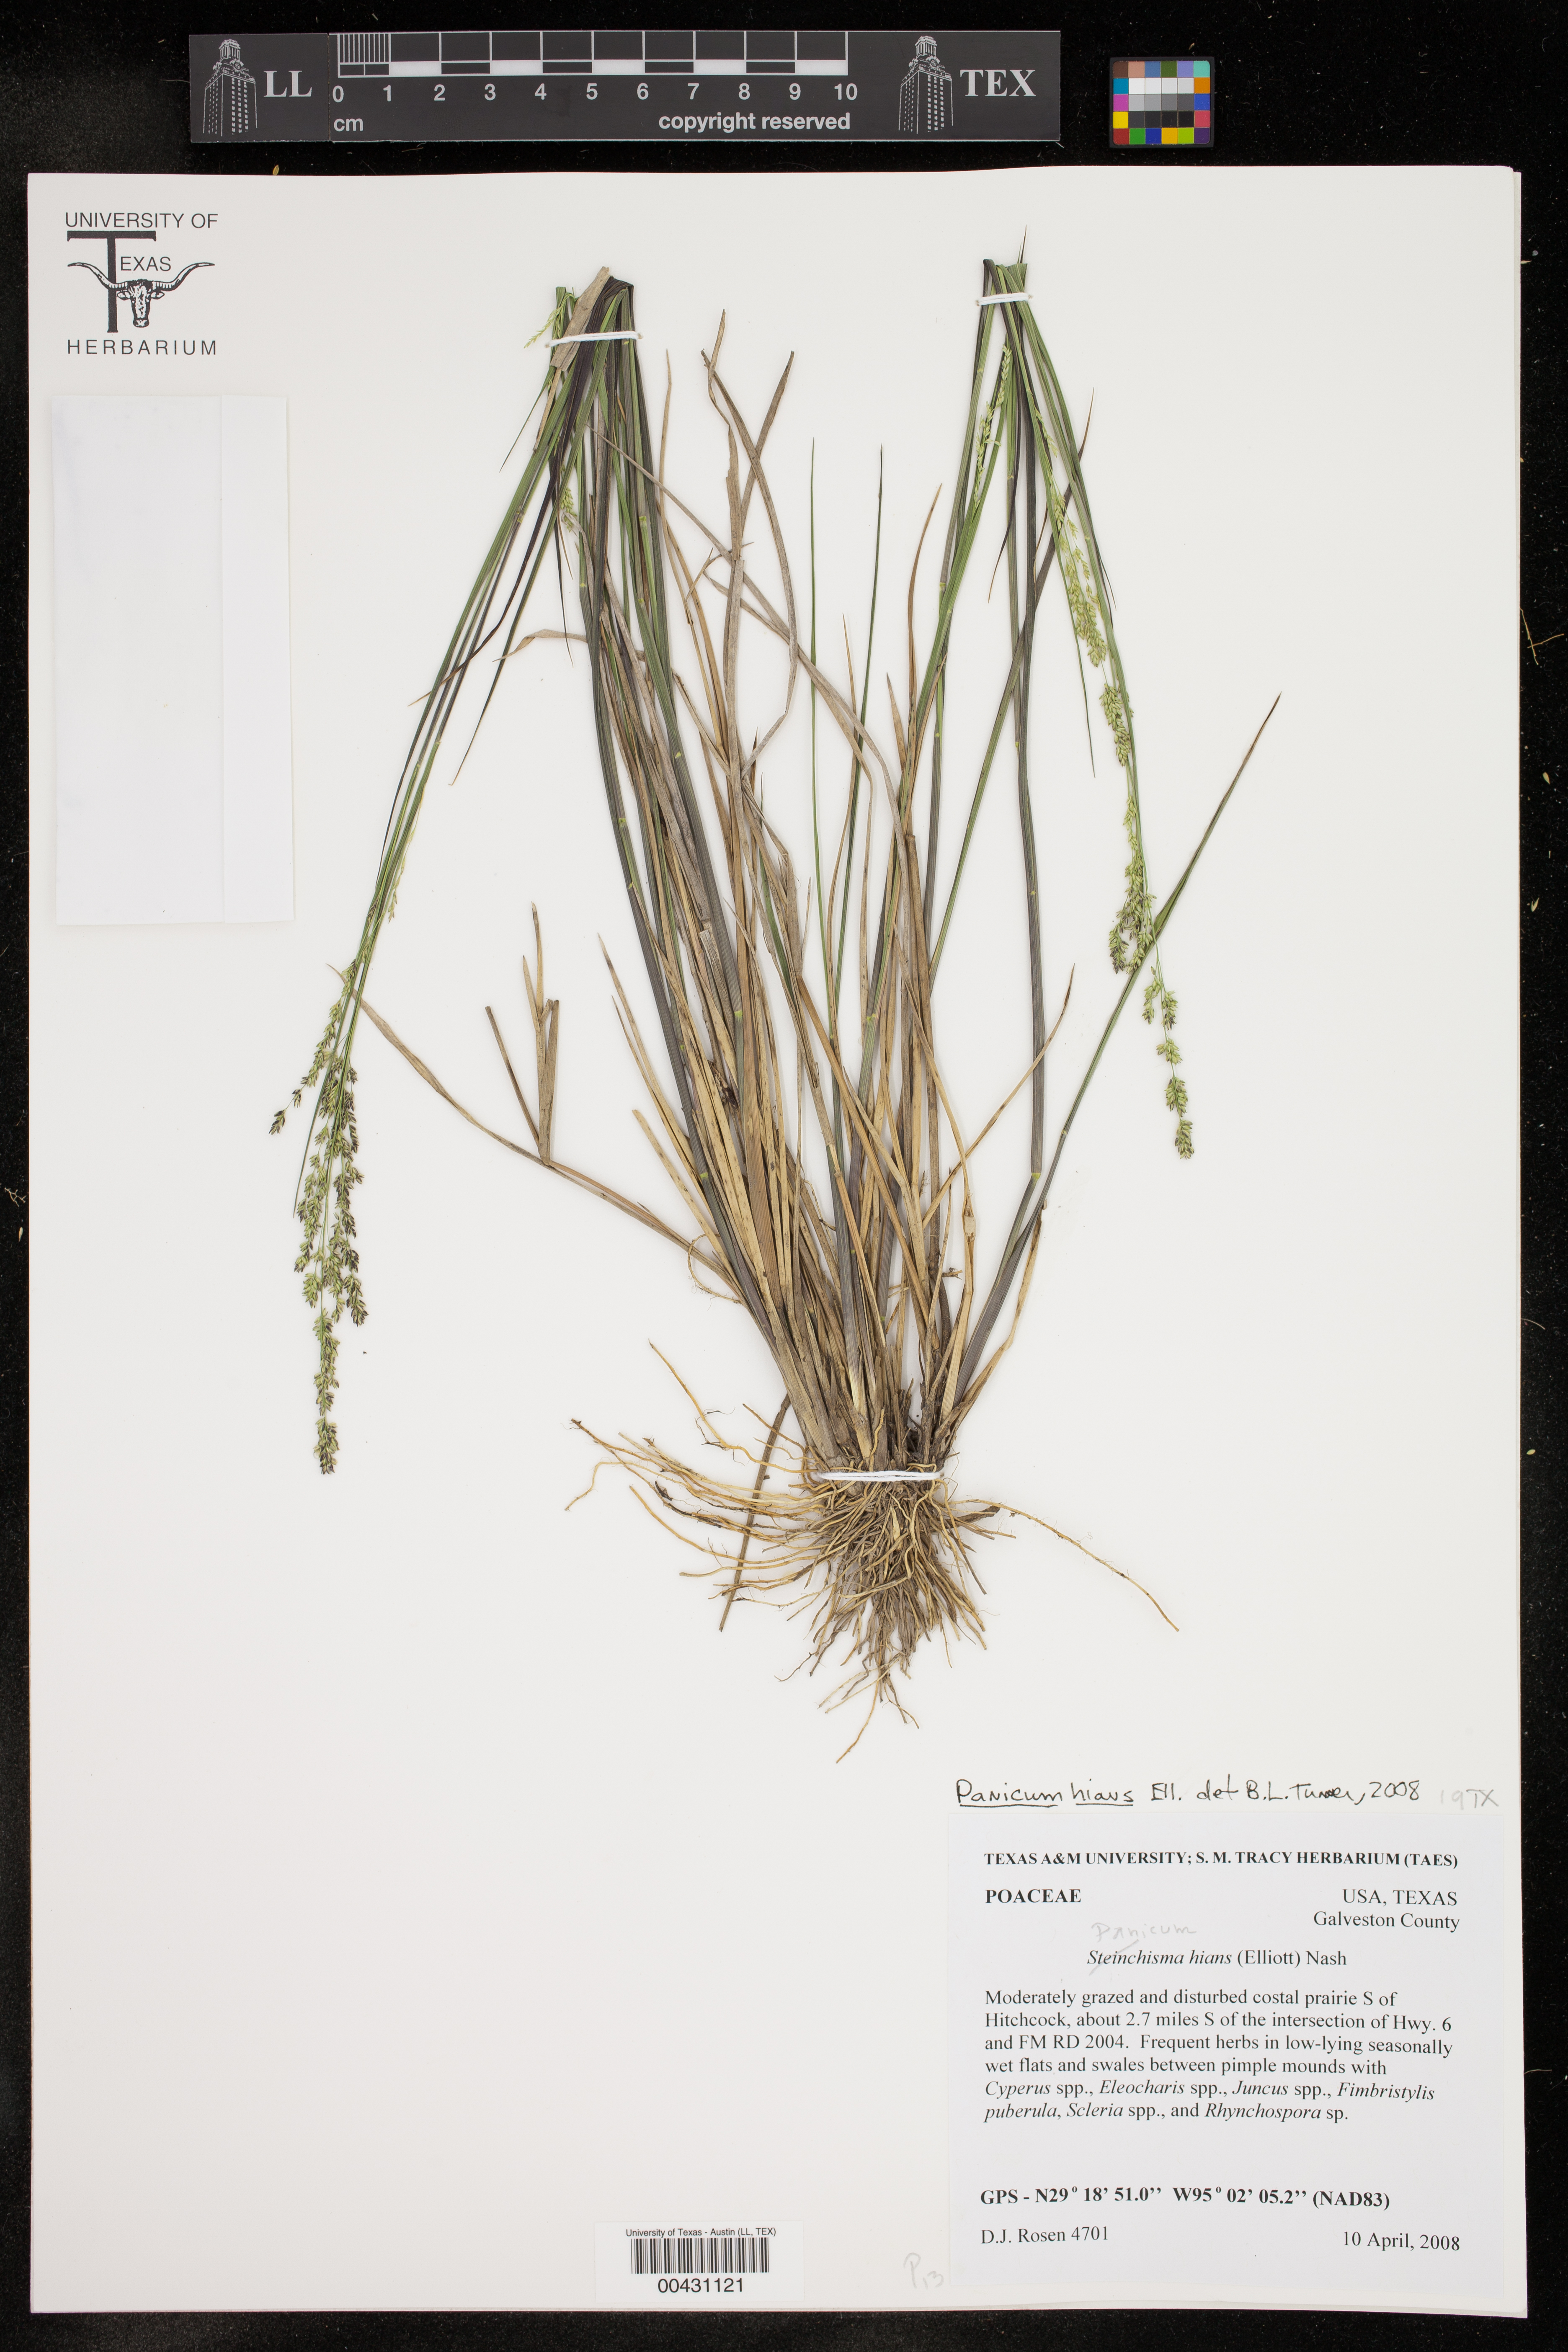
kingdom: Plantae
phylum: Tracheophyta
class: Liliopsida
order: Poales
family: Poaceae
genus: Steinchisma
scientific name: Steinchisma hians
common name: Gaping panic grass
